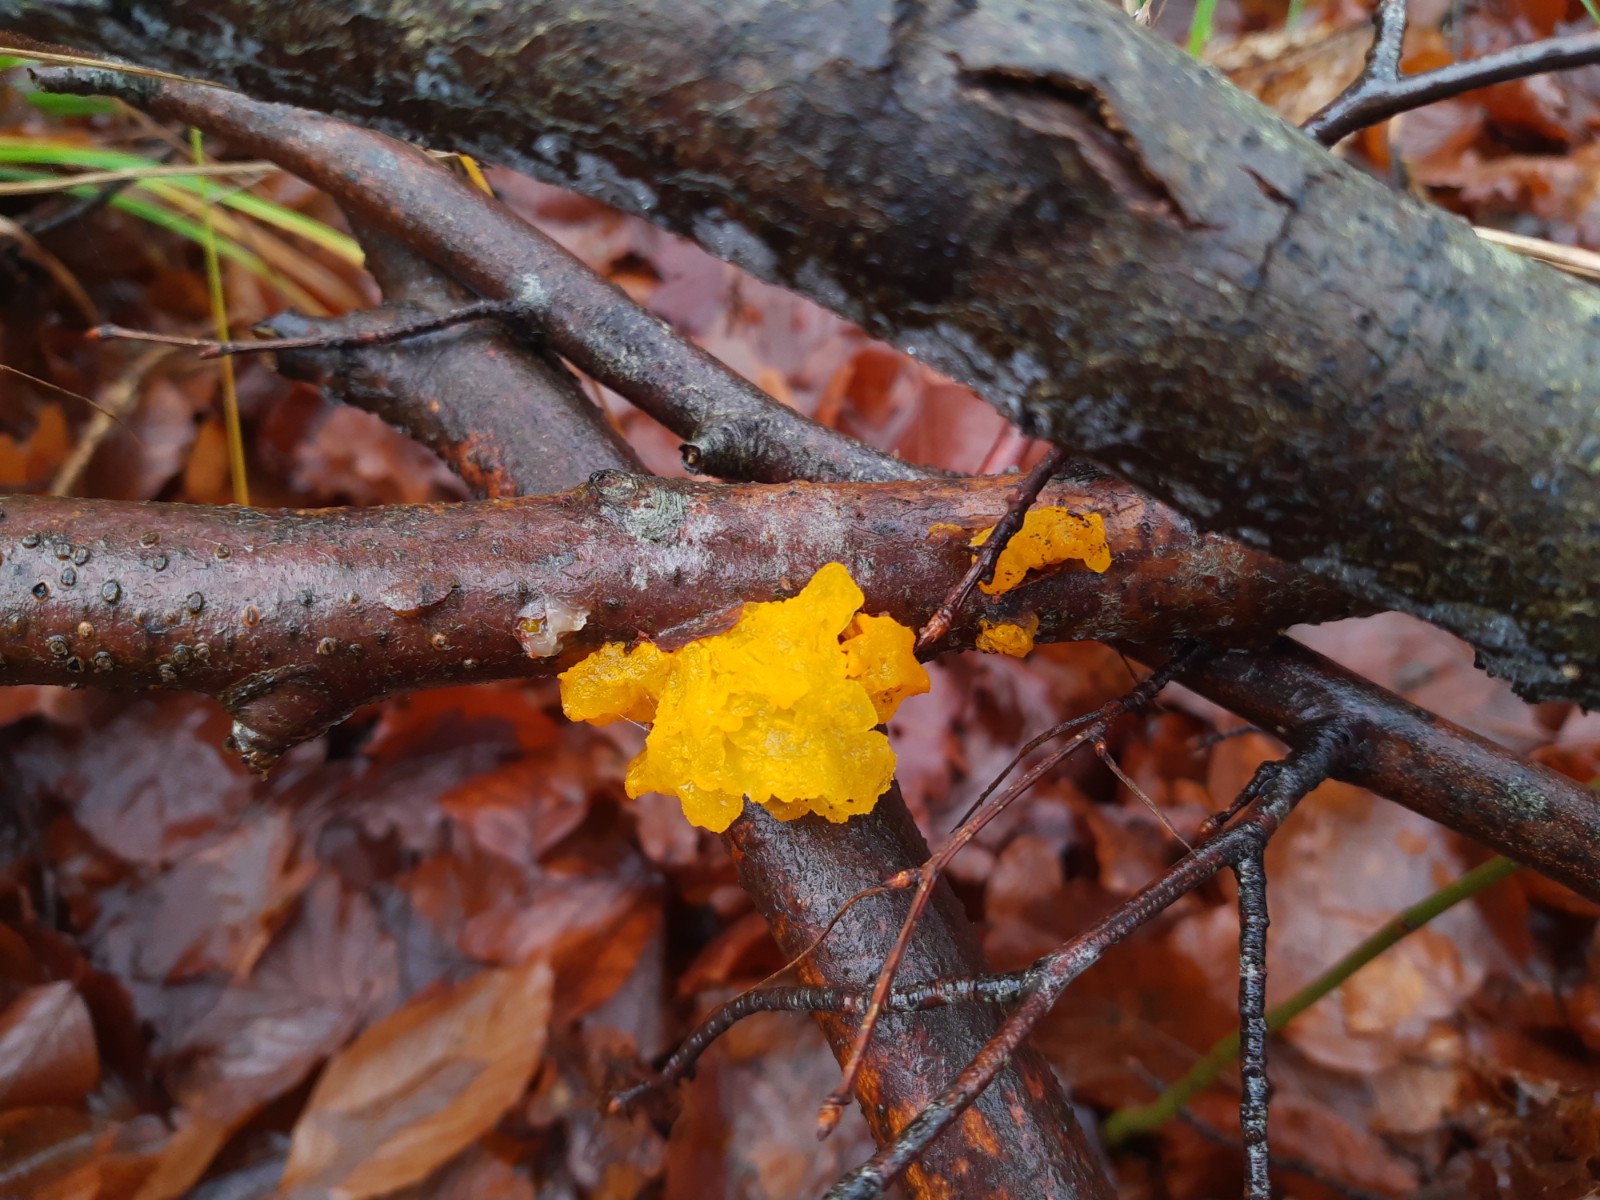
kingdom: Fungi
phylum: Basidiomycota
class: Tremellomycetes
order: Tremellales
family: Tremellaceae
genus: Tremella
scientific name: Tremella mesenterica
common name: gul bævresvamp
